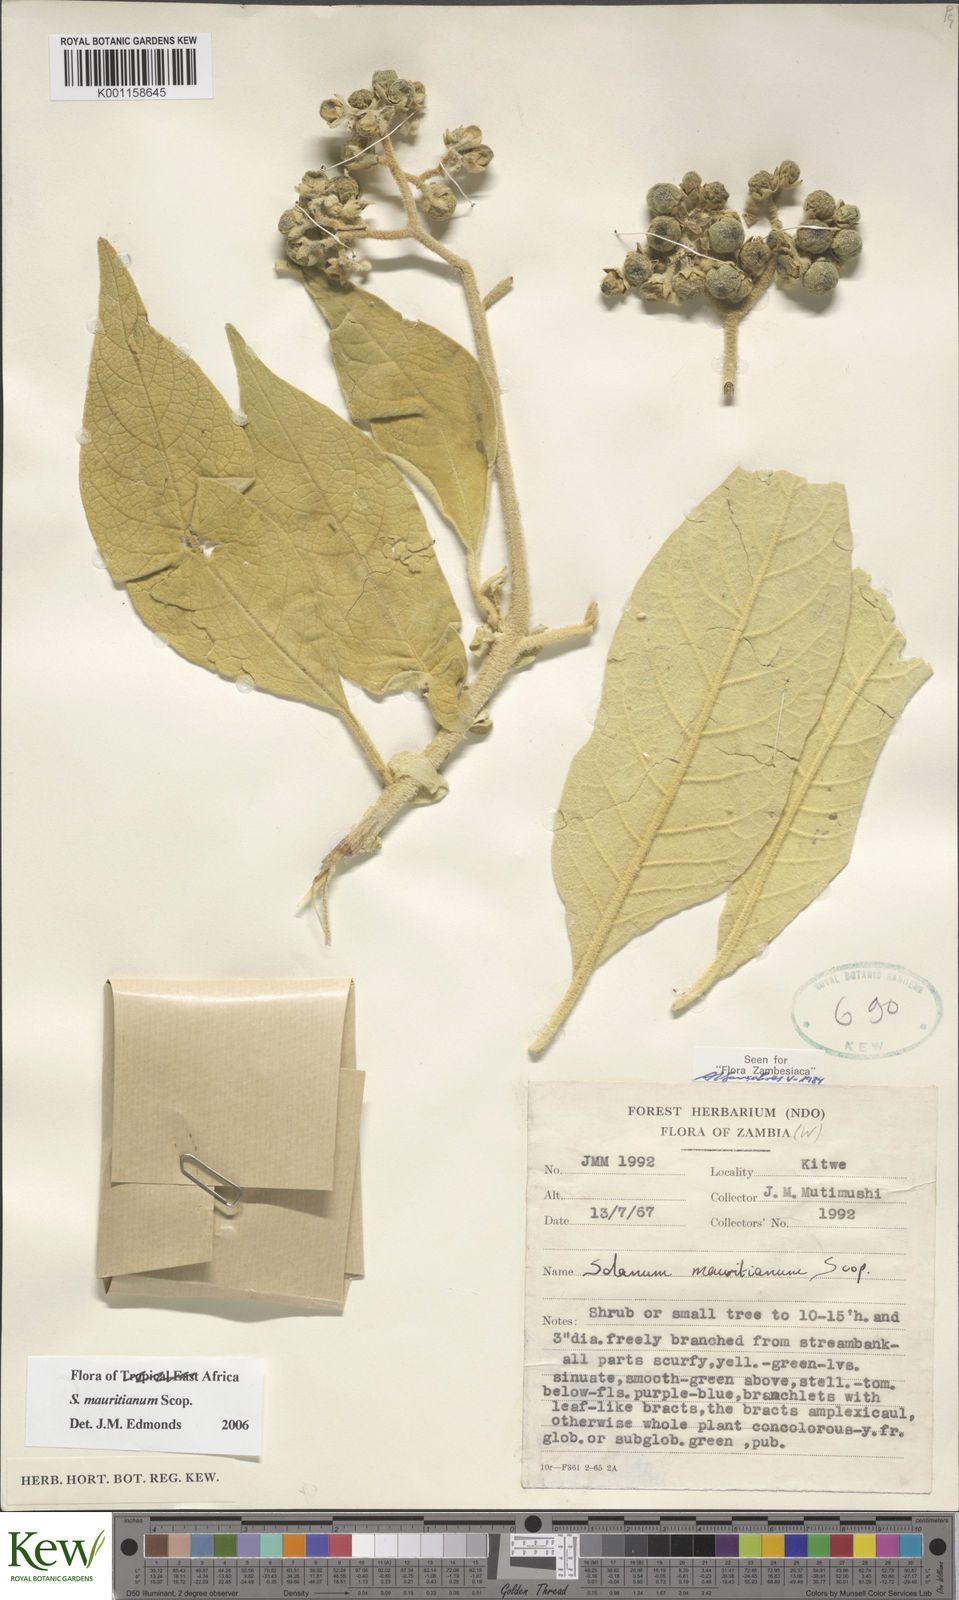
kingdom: Plantae
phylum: Tracheophyta
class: Magnoliopsida
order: Solanales
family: Solanaceae
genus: Solanum
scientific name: Solanum mauritianum
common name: Earleaf nightshade
